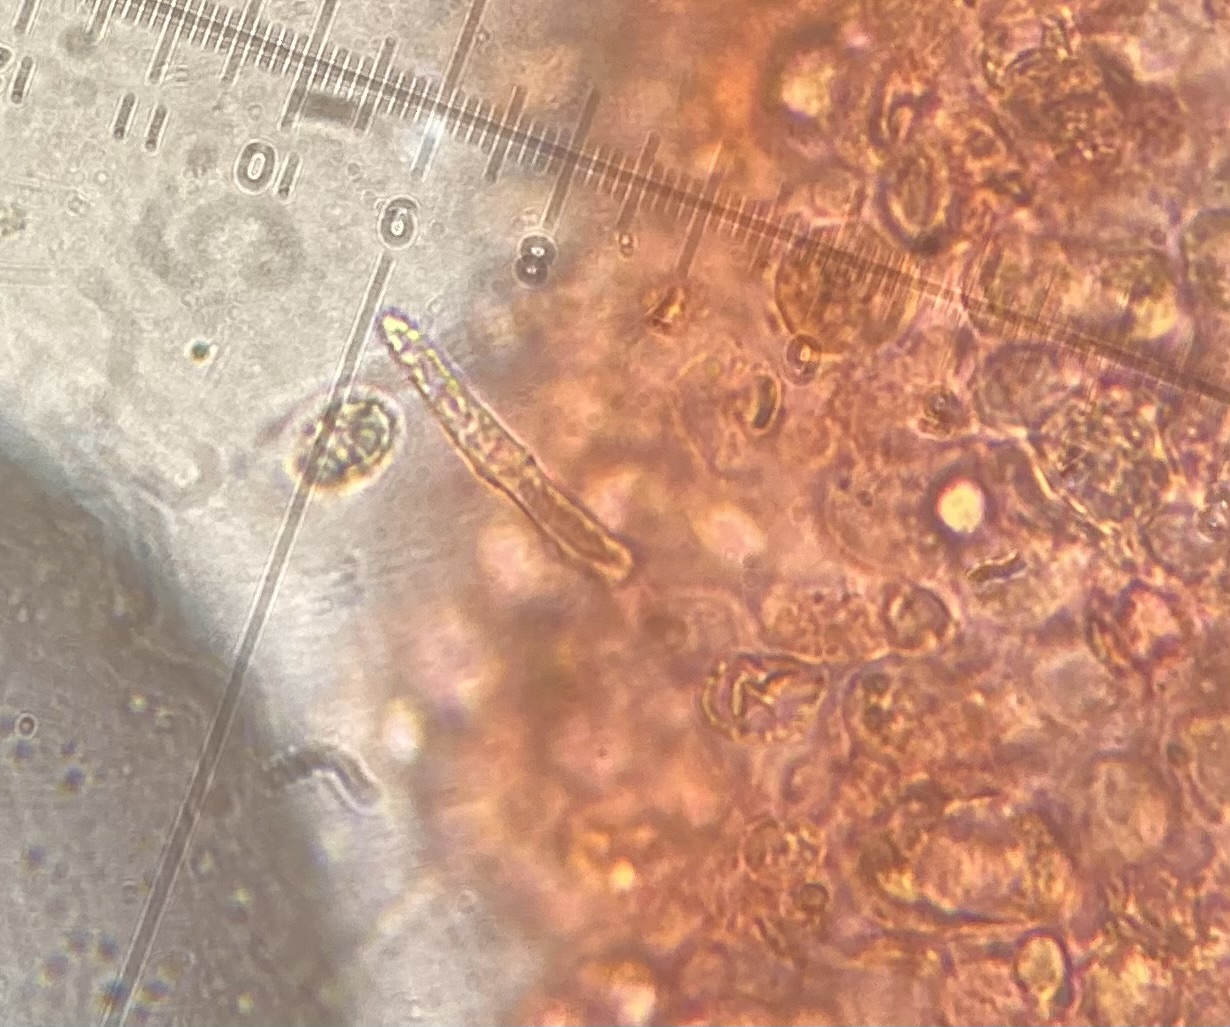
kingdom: Fungi
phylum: Basidiomycota
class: Agaricomycetes
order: Agaricales
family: Tricholomataceae
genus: Melanoleuca
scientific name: Melanoleuca
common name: munkehat
